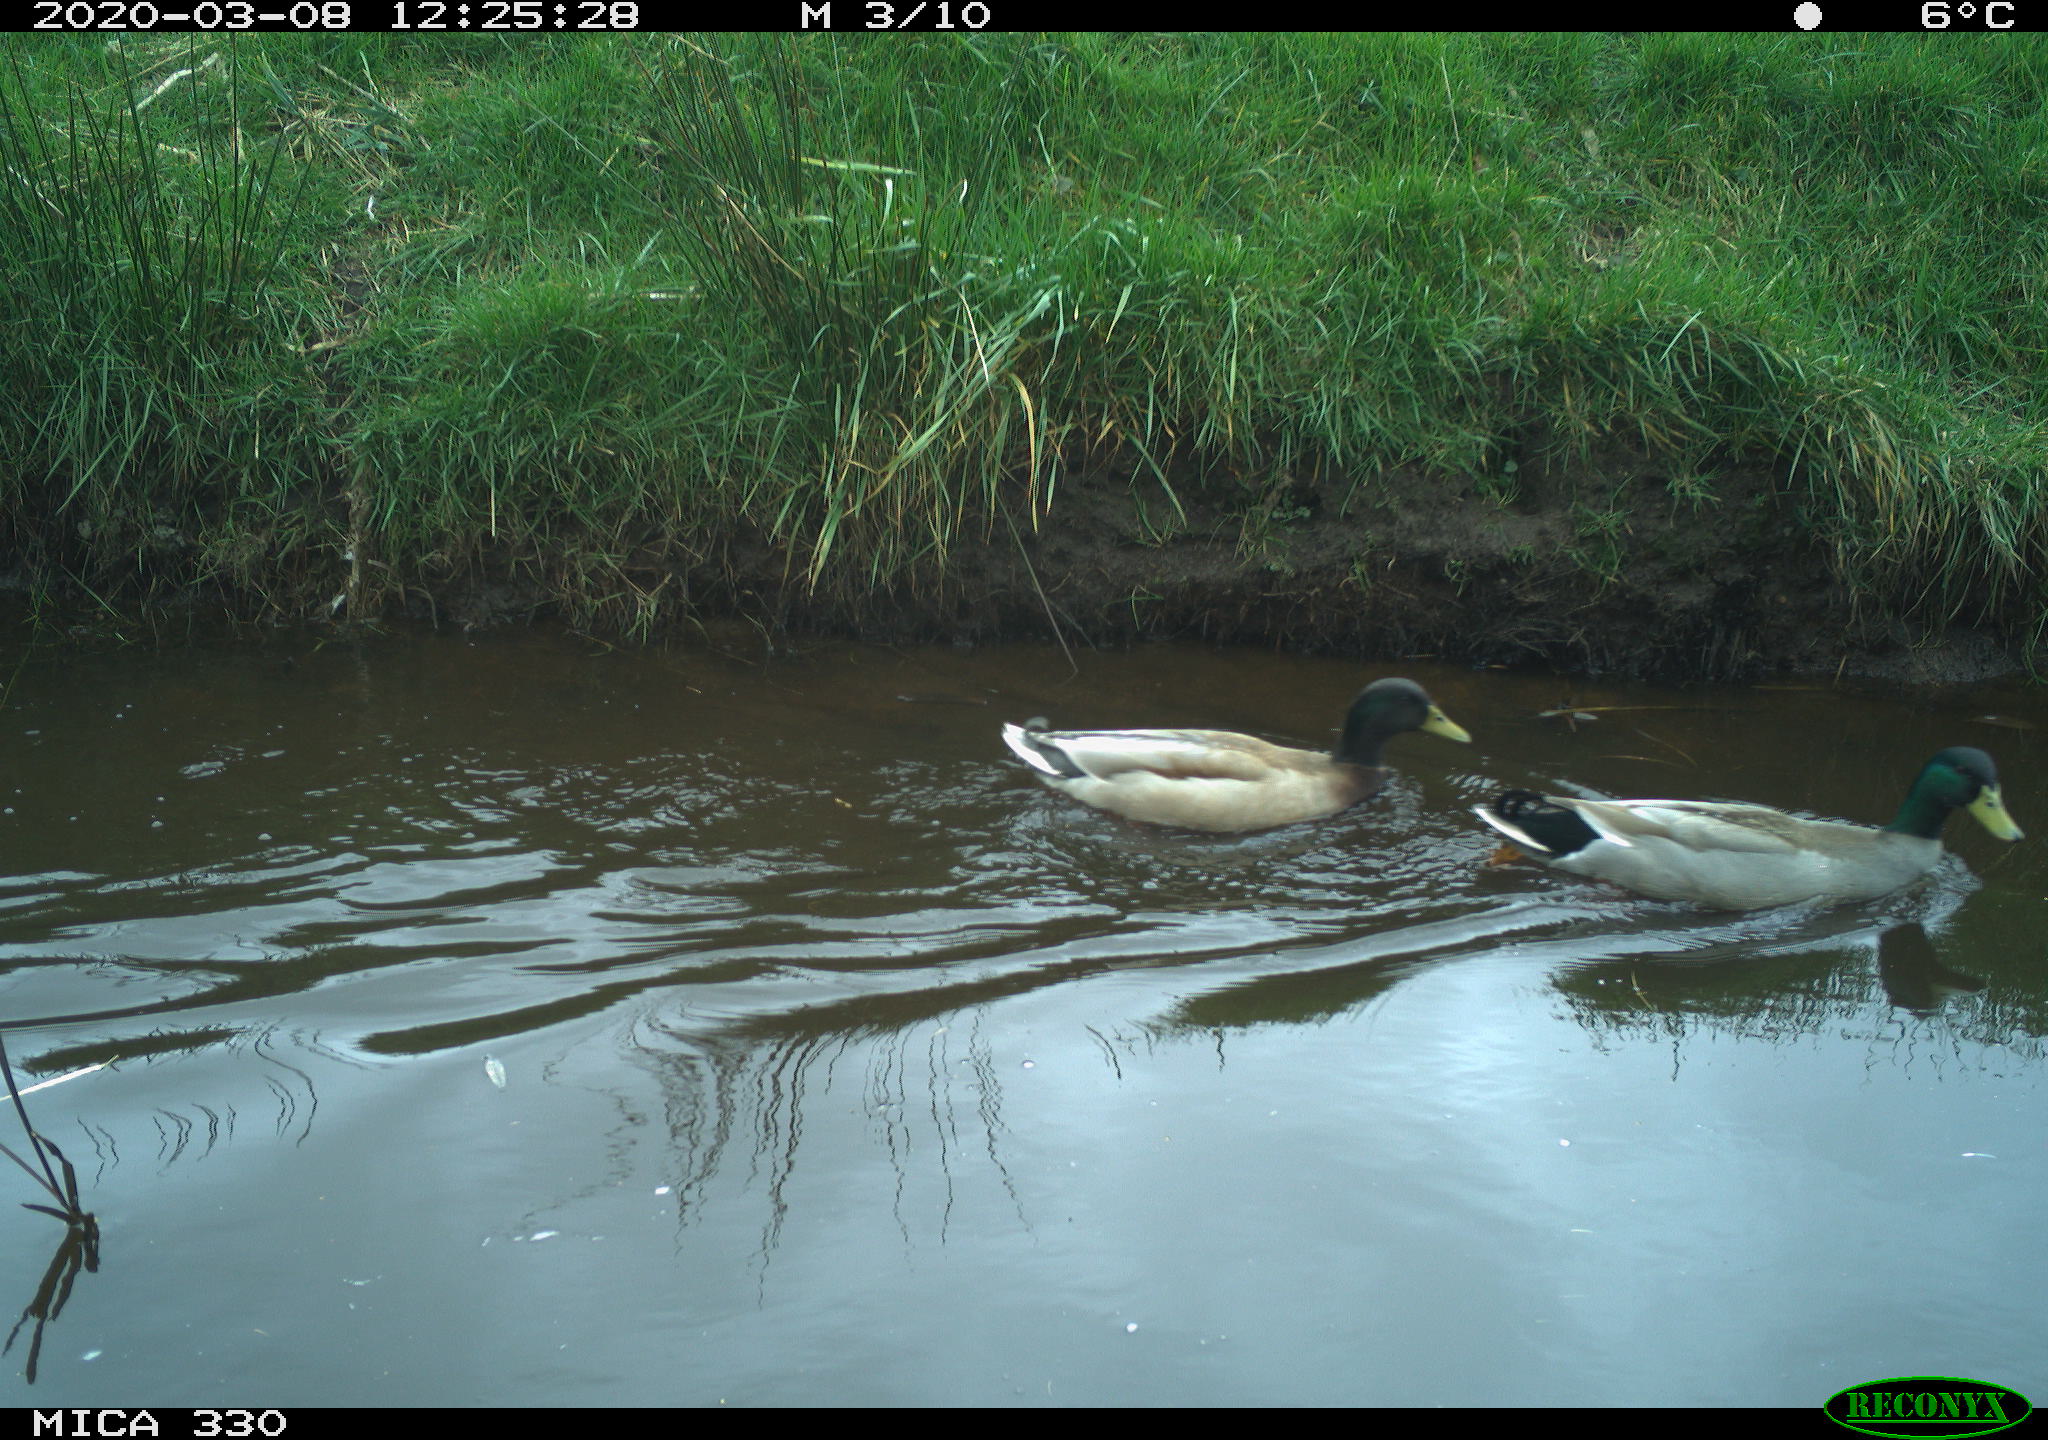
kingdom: Animalia
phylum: Chordata
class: Aves
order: Anseriformes
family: Anatidae
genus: Anas
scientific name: Anas platyrhynchos
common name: Mallard
